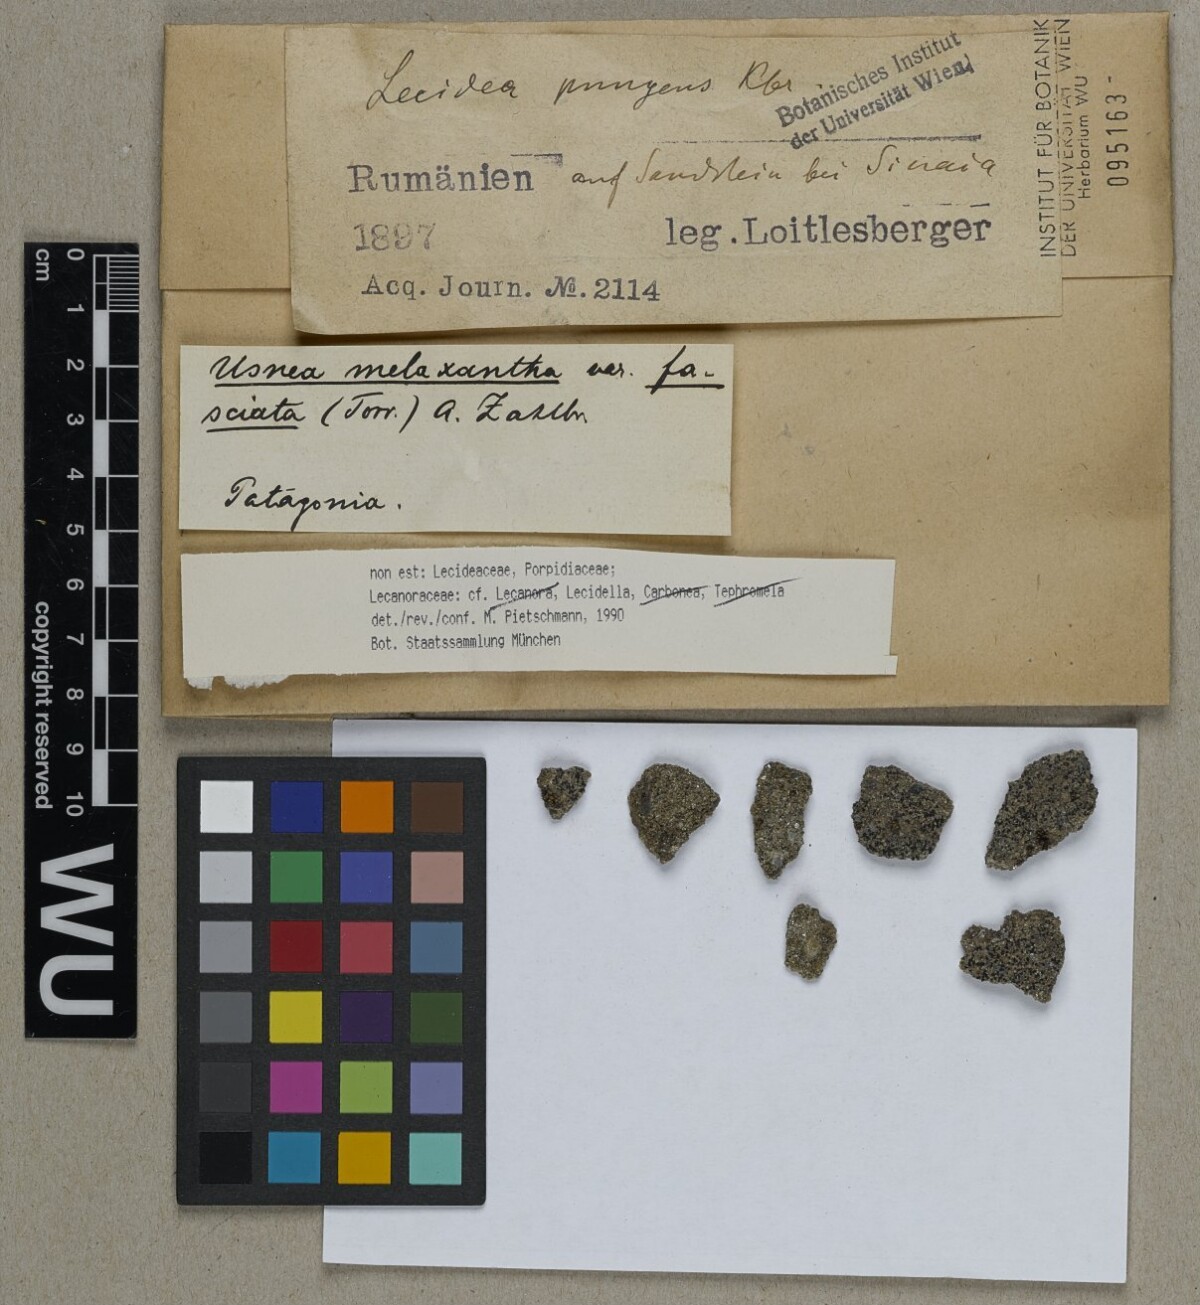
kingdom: Fungi
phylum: Ascomycota
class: Lecanoromycetes
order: Lecanorales
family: Lecanoraceae
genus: Lecidella
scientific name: Lecidella
